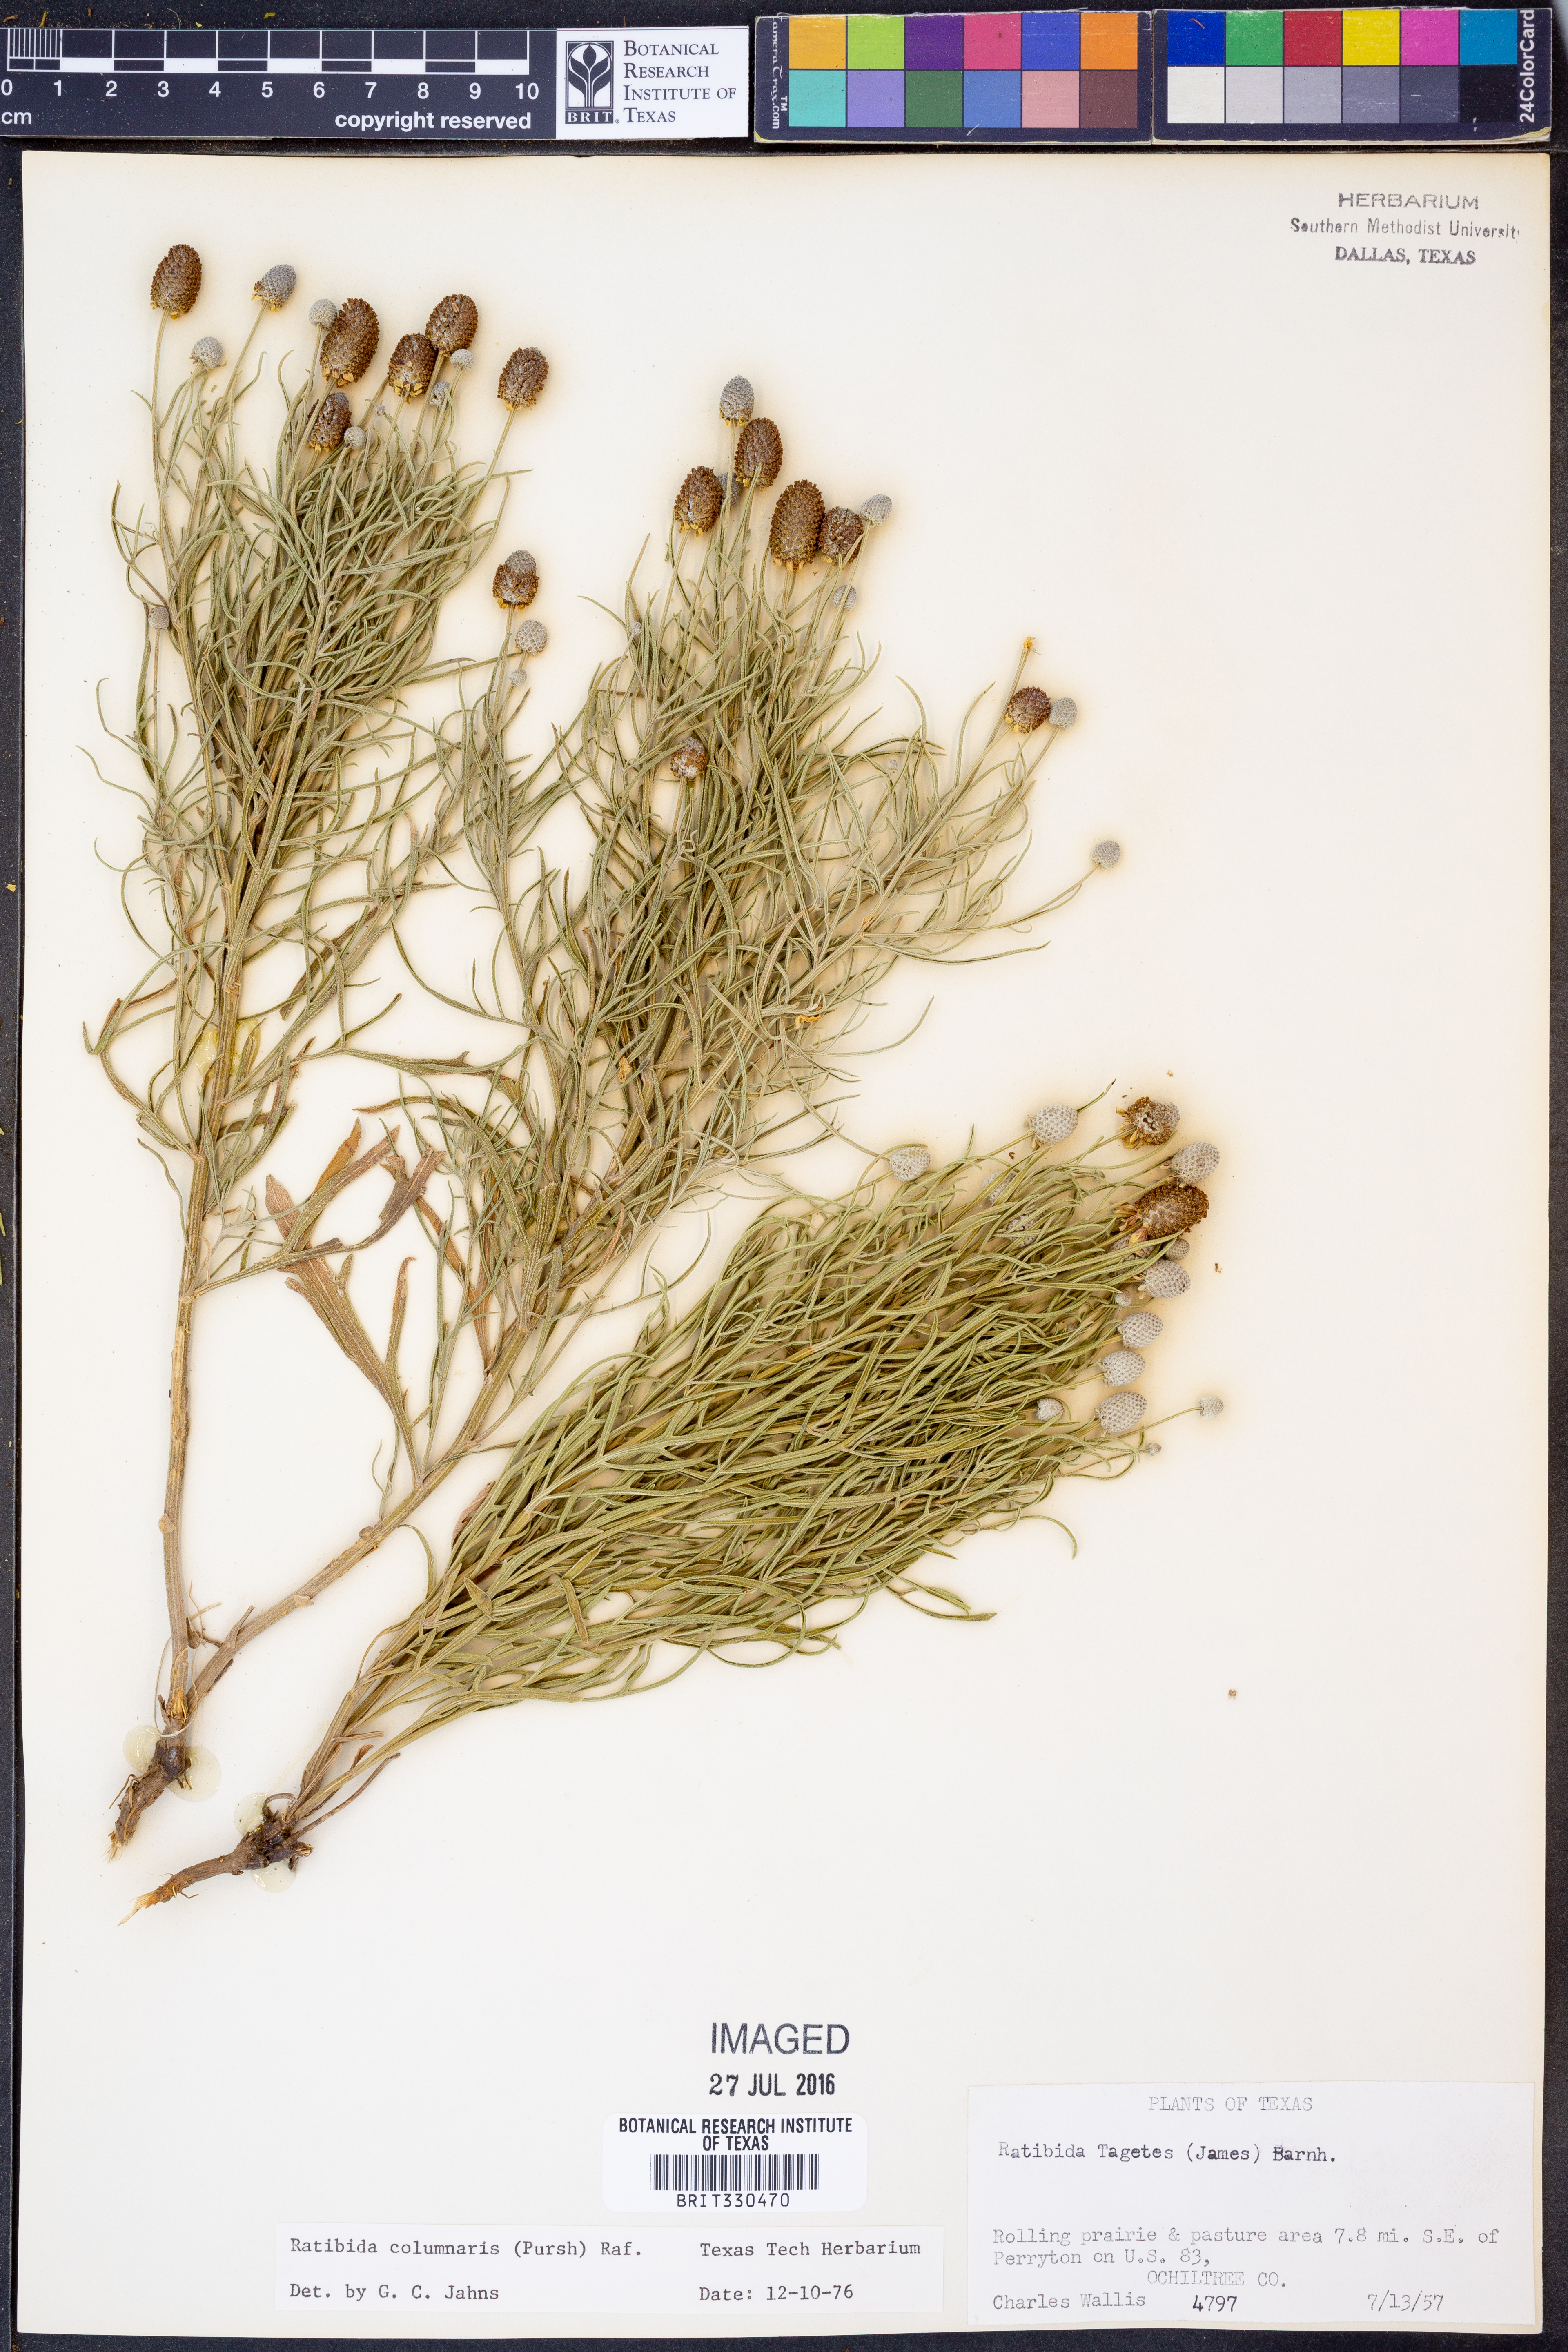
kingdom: Plantae
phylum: Tracheophyta
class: Magnoliopsida
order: Asterales
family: Asteraceae
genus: Ratibida
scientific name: Ratibida columnifera
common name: Prairie coneflower
